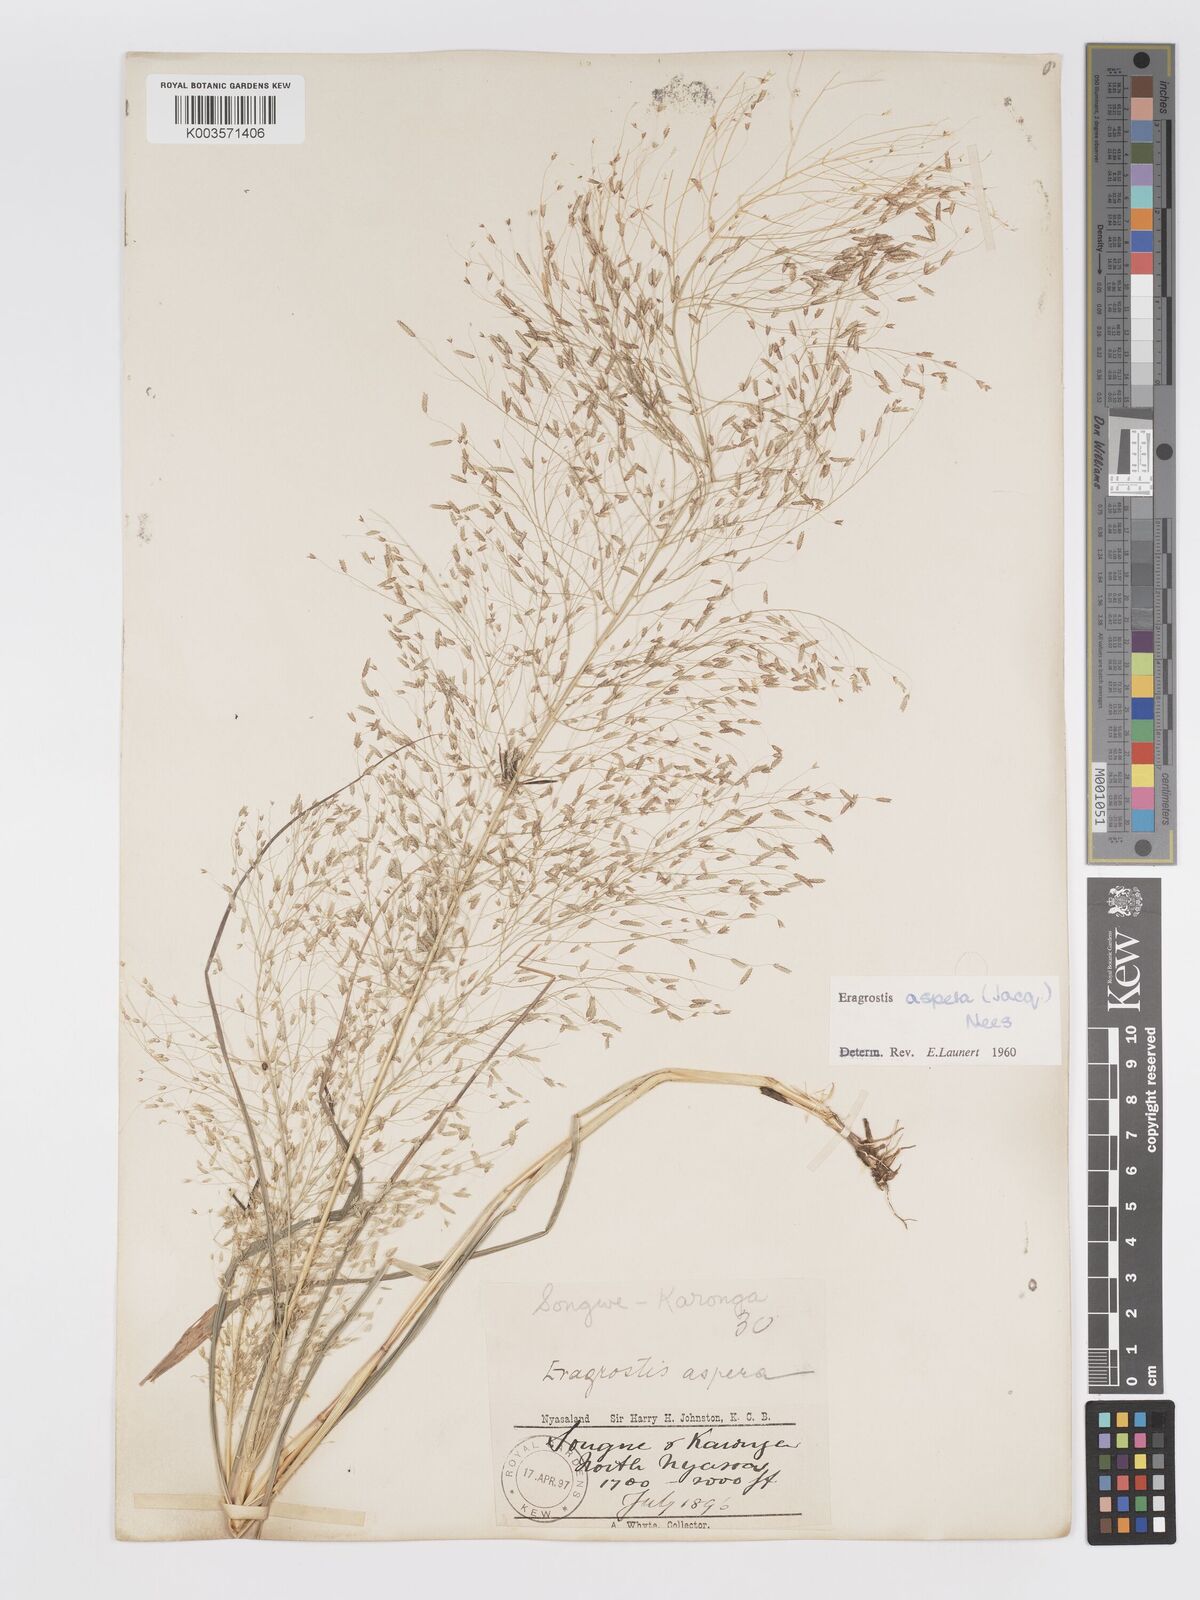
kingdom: Plantae
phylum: Tracheophyta
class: Liliopsida
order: Poales
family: Poaceae
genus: Eragrostis
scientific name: Eragrostis aspera
